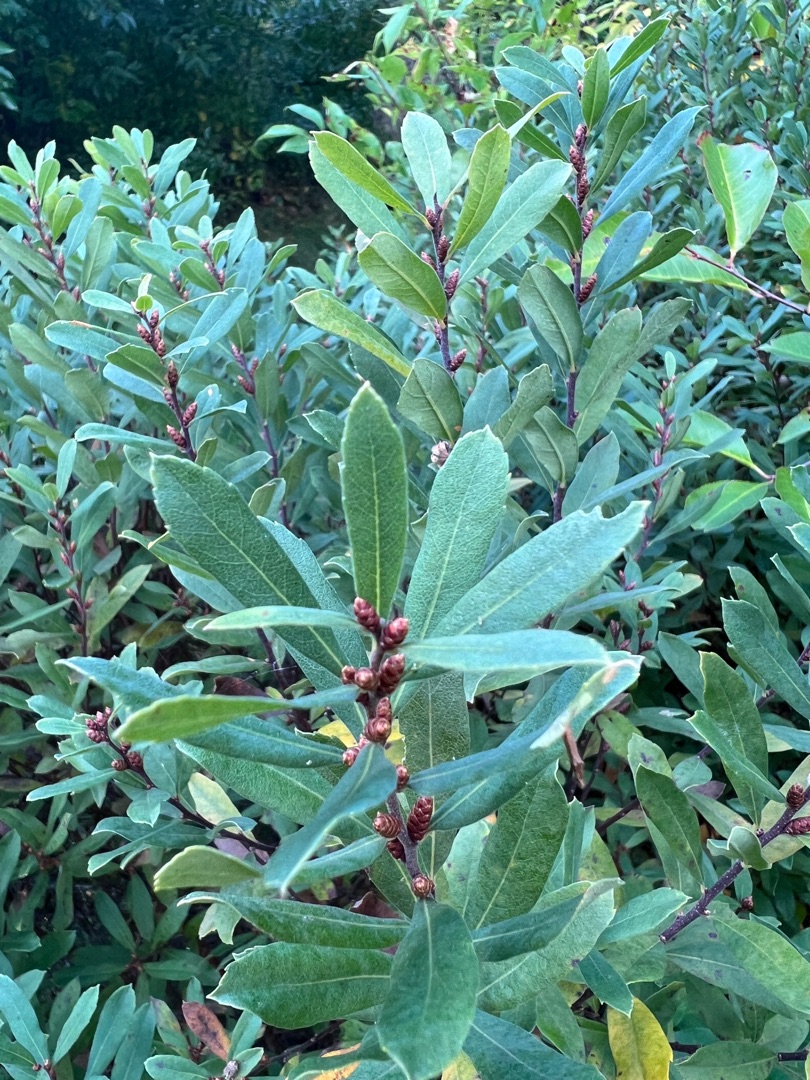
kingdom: Plantae
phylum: Tracheophyta
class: Magnoliopsida
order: Fagales
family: Myricaceae
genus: Myrica
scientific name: Myrica gale
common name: Pors
